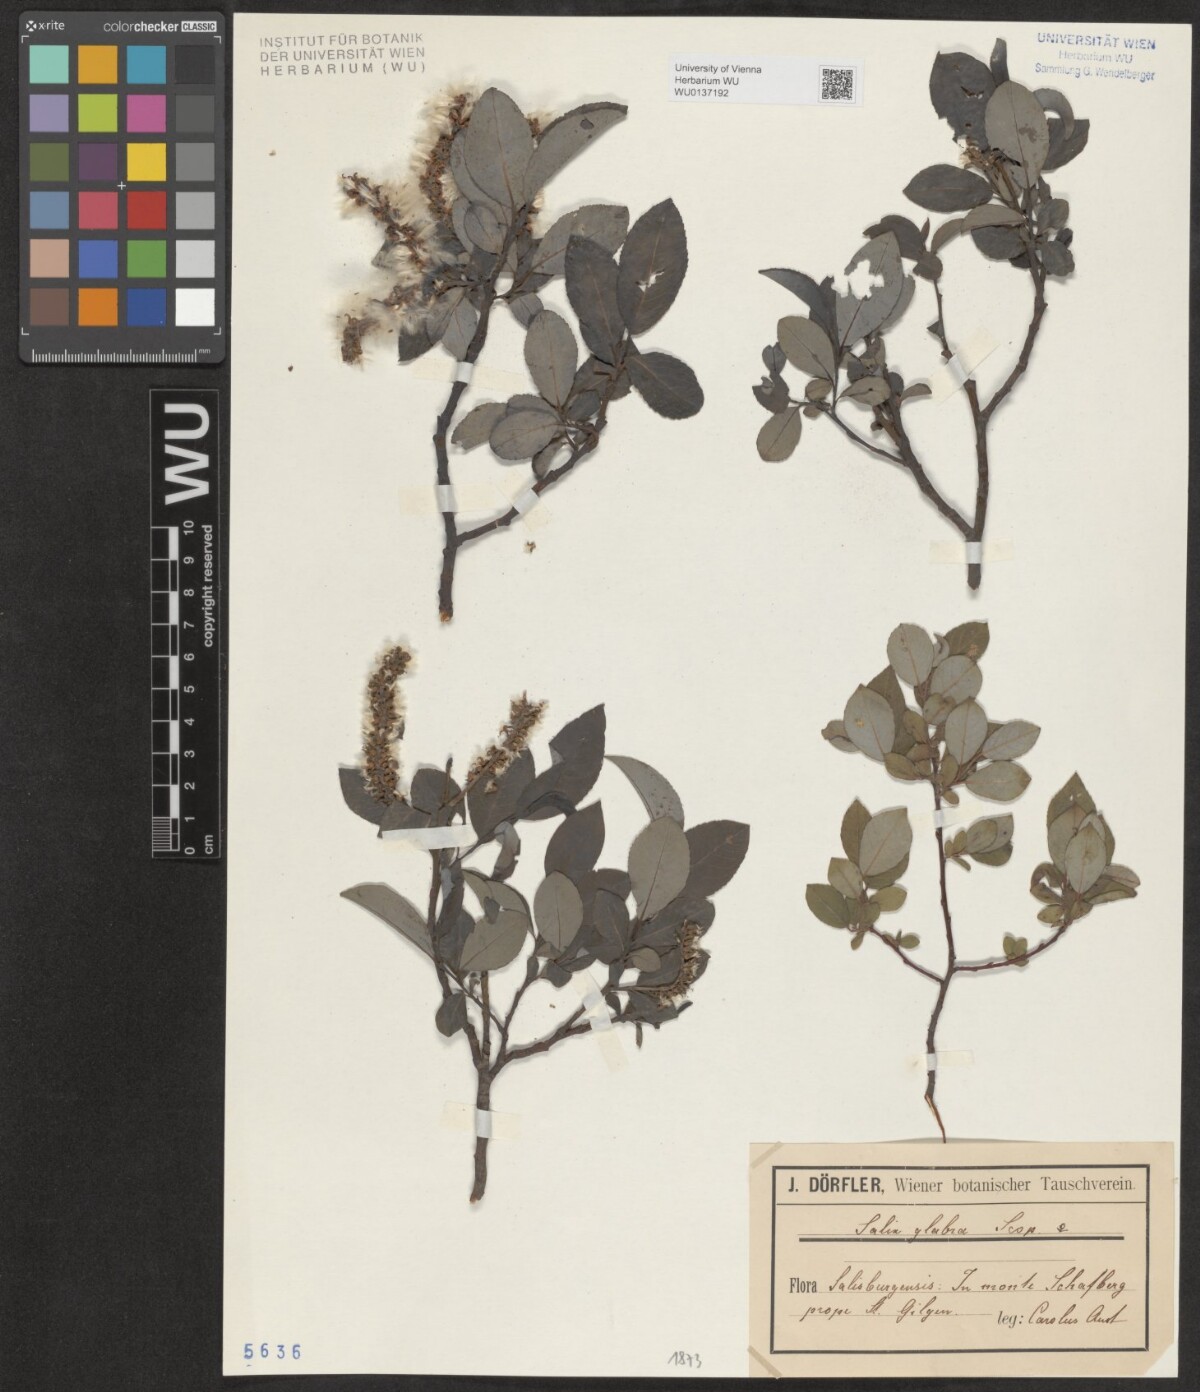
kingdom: Plantae
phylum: Tracheophyta
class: Magnoliopsida
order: Malpighiales
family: Salicaceae
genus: Salix
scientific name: Salix glabra
